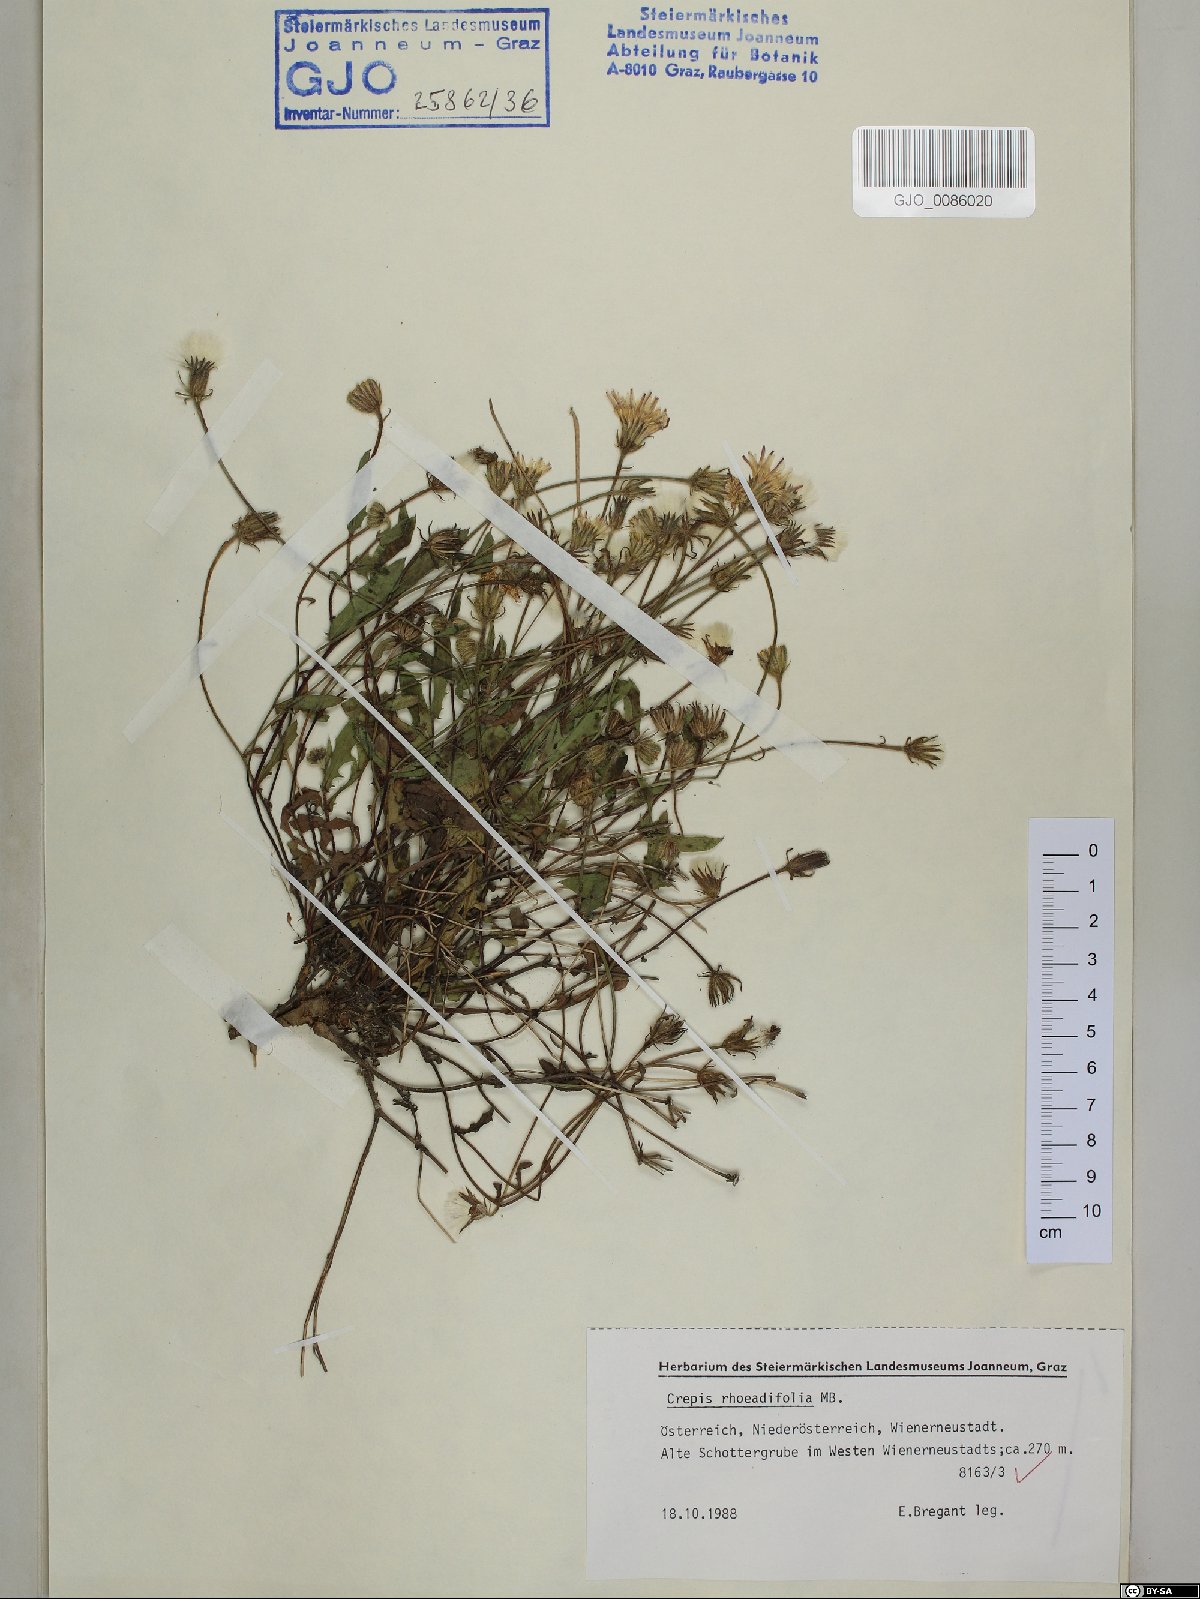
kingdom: Plantae
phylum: Tracheophyta
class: Magnoliopsida
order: Asterales
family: Asteraceae
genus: Crepis
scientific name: Crepis foetida
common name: Stinking hawk's-beard
